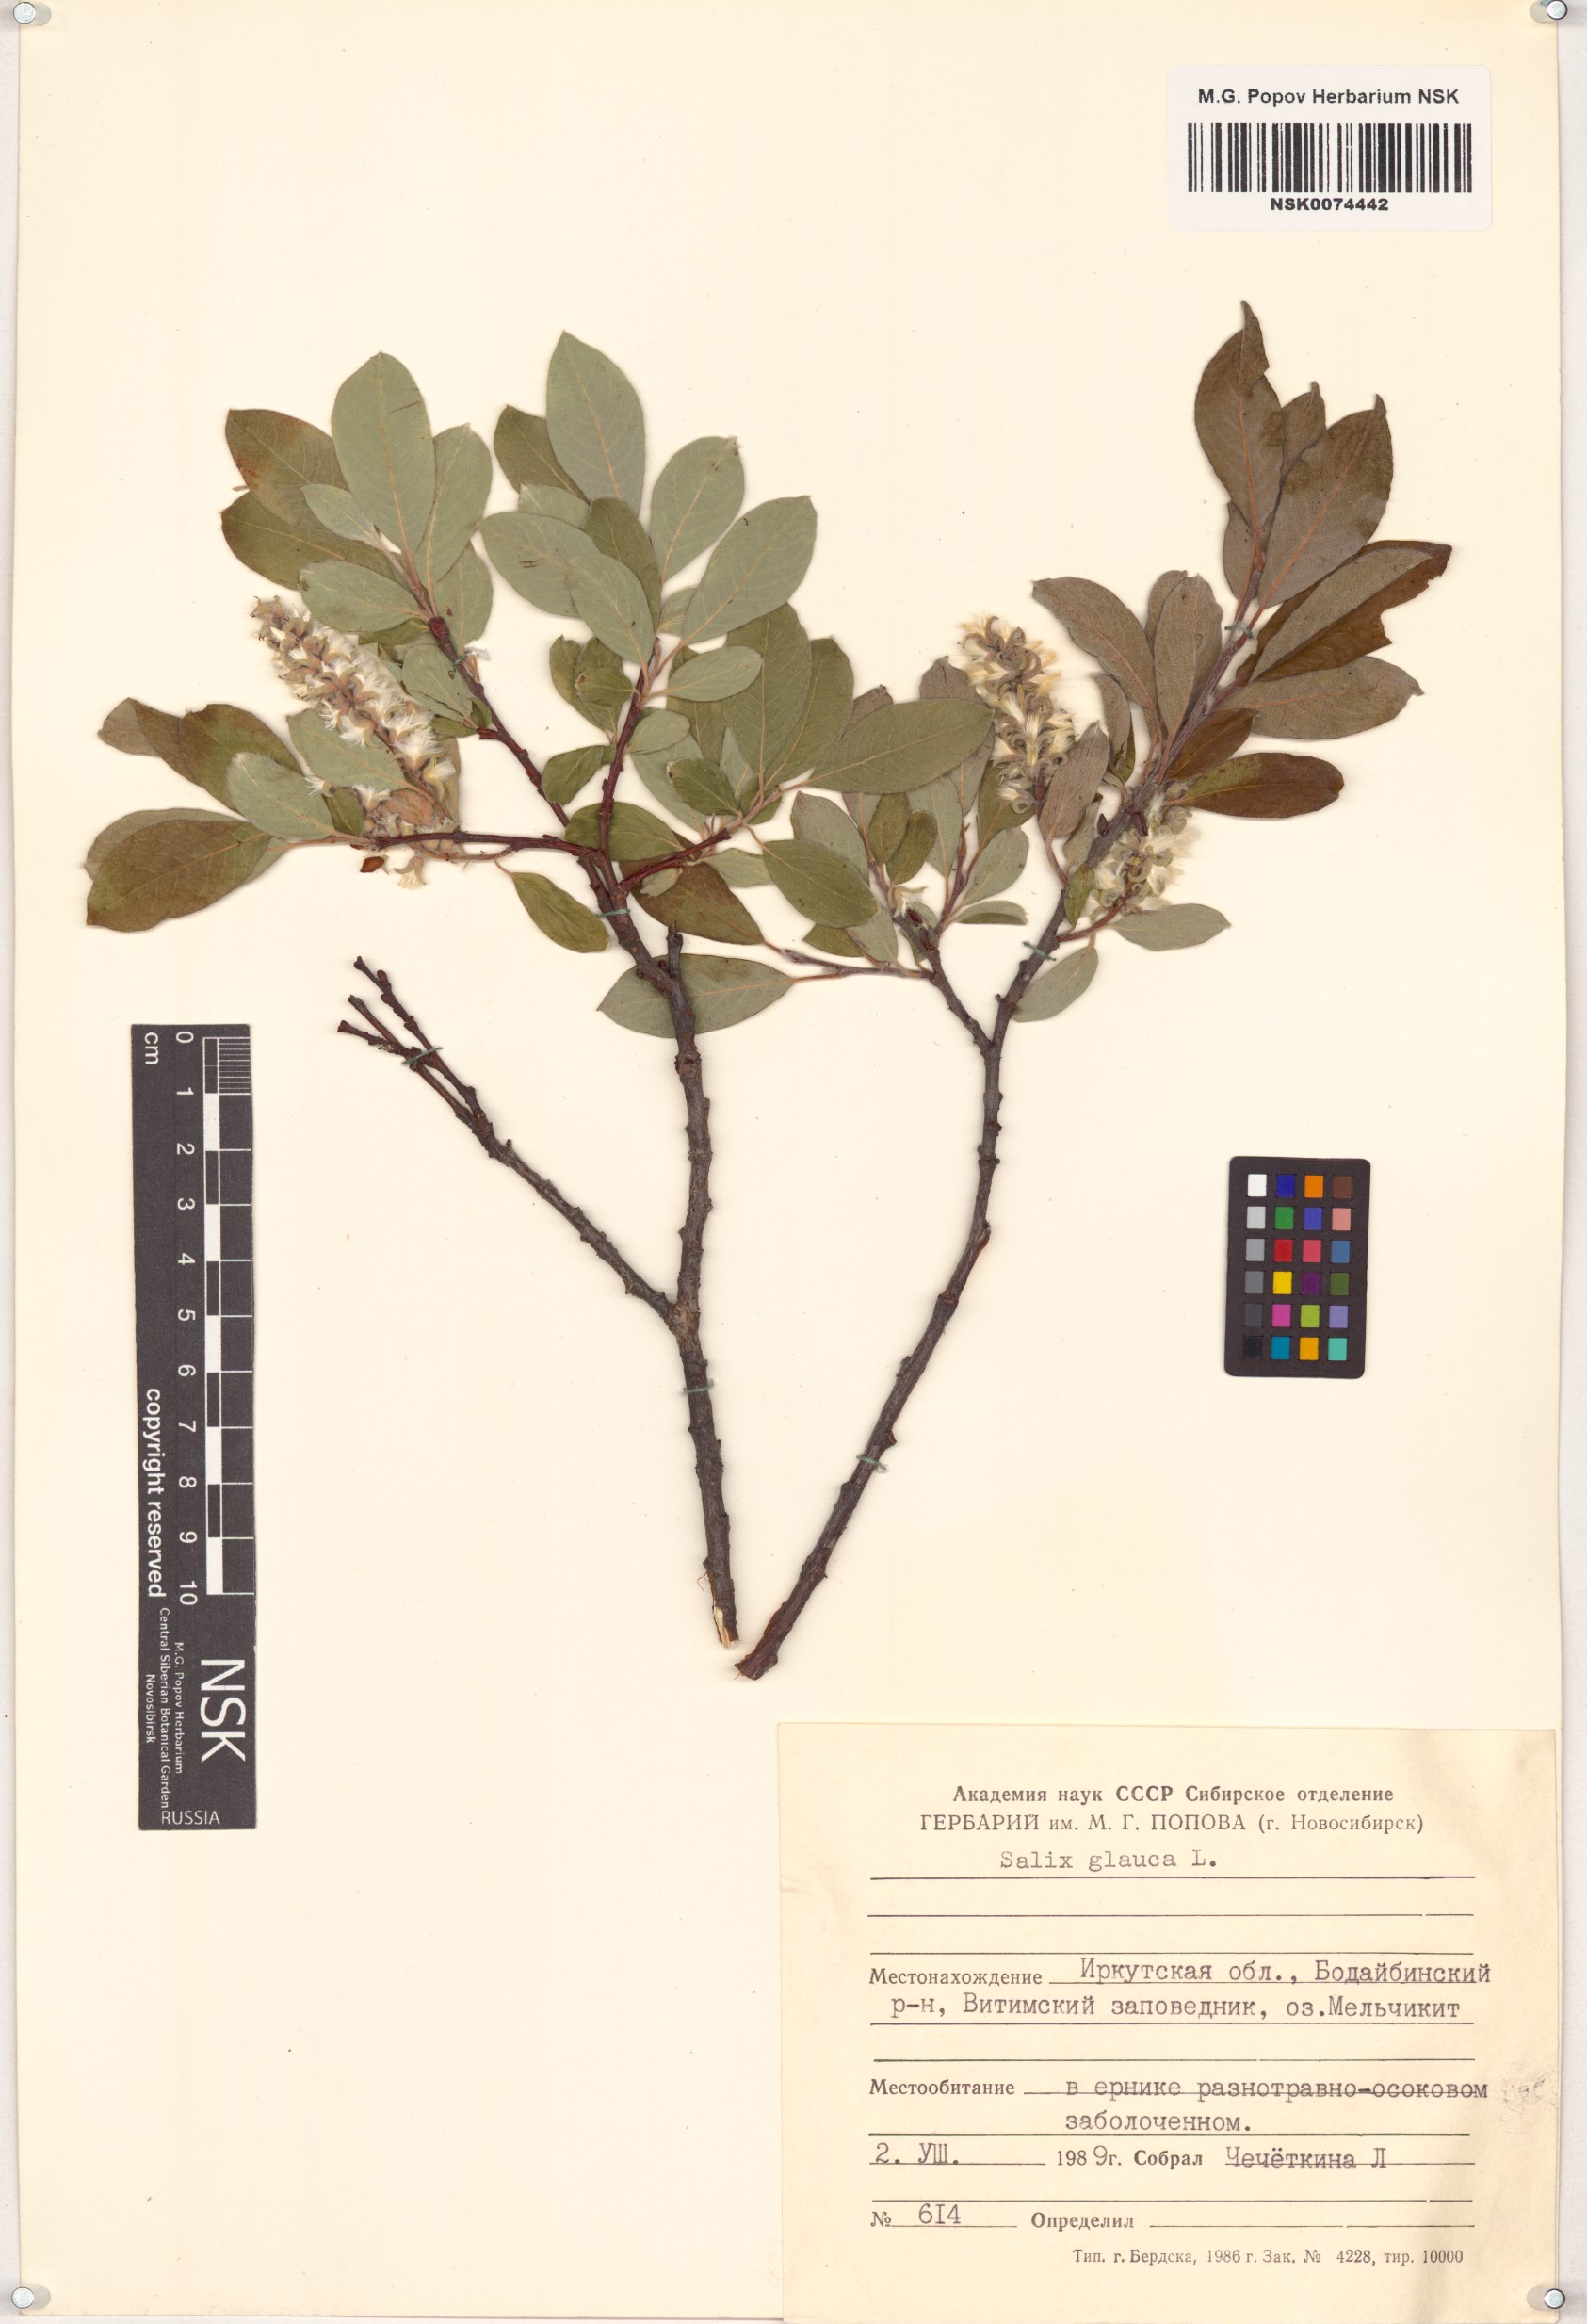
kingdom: Plantae
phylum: Tracheophyta
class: Magnoliopsida
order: Malpighiales
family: Salicaceae
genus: Salix
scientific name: Salix glauca
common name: Glaucous willow
